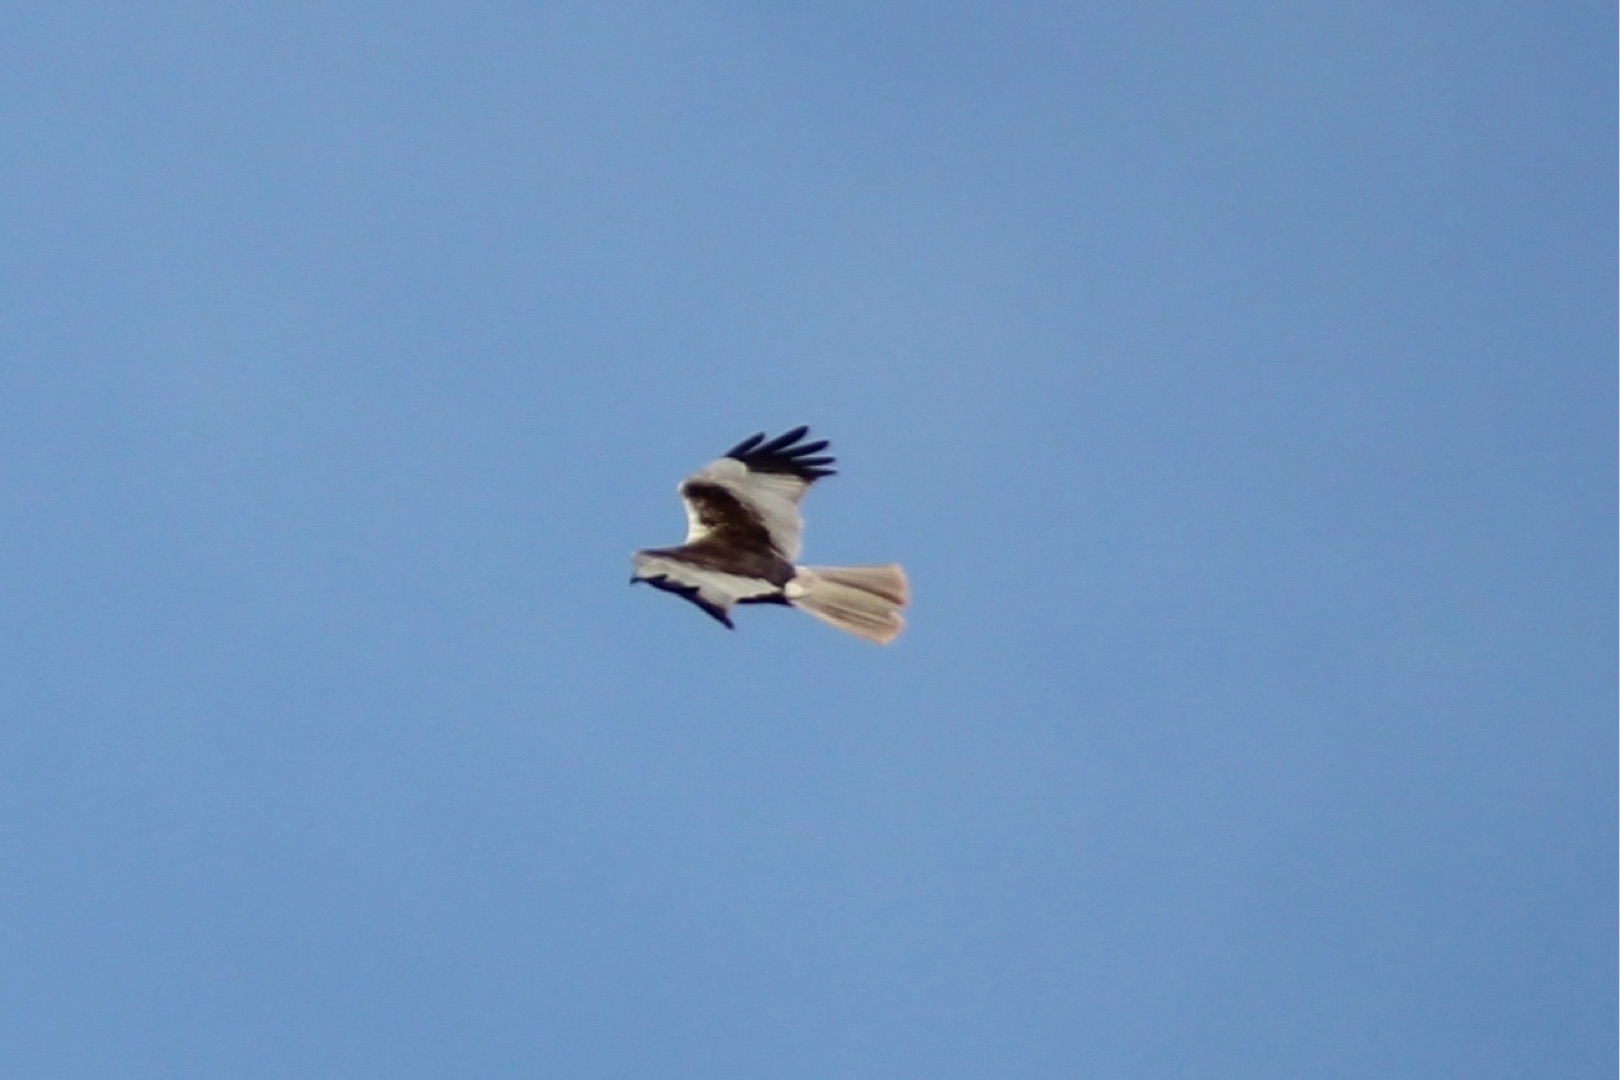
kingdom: Animalia
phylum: Chordata
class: Aves
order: Accipitriformes
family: Accipitridae
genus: Circus
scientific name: Circus aeruginosus
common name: Rørhøg
